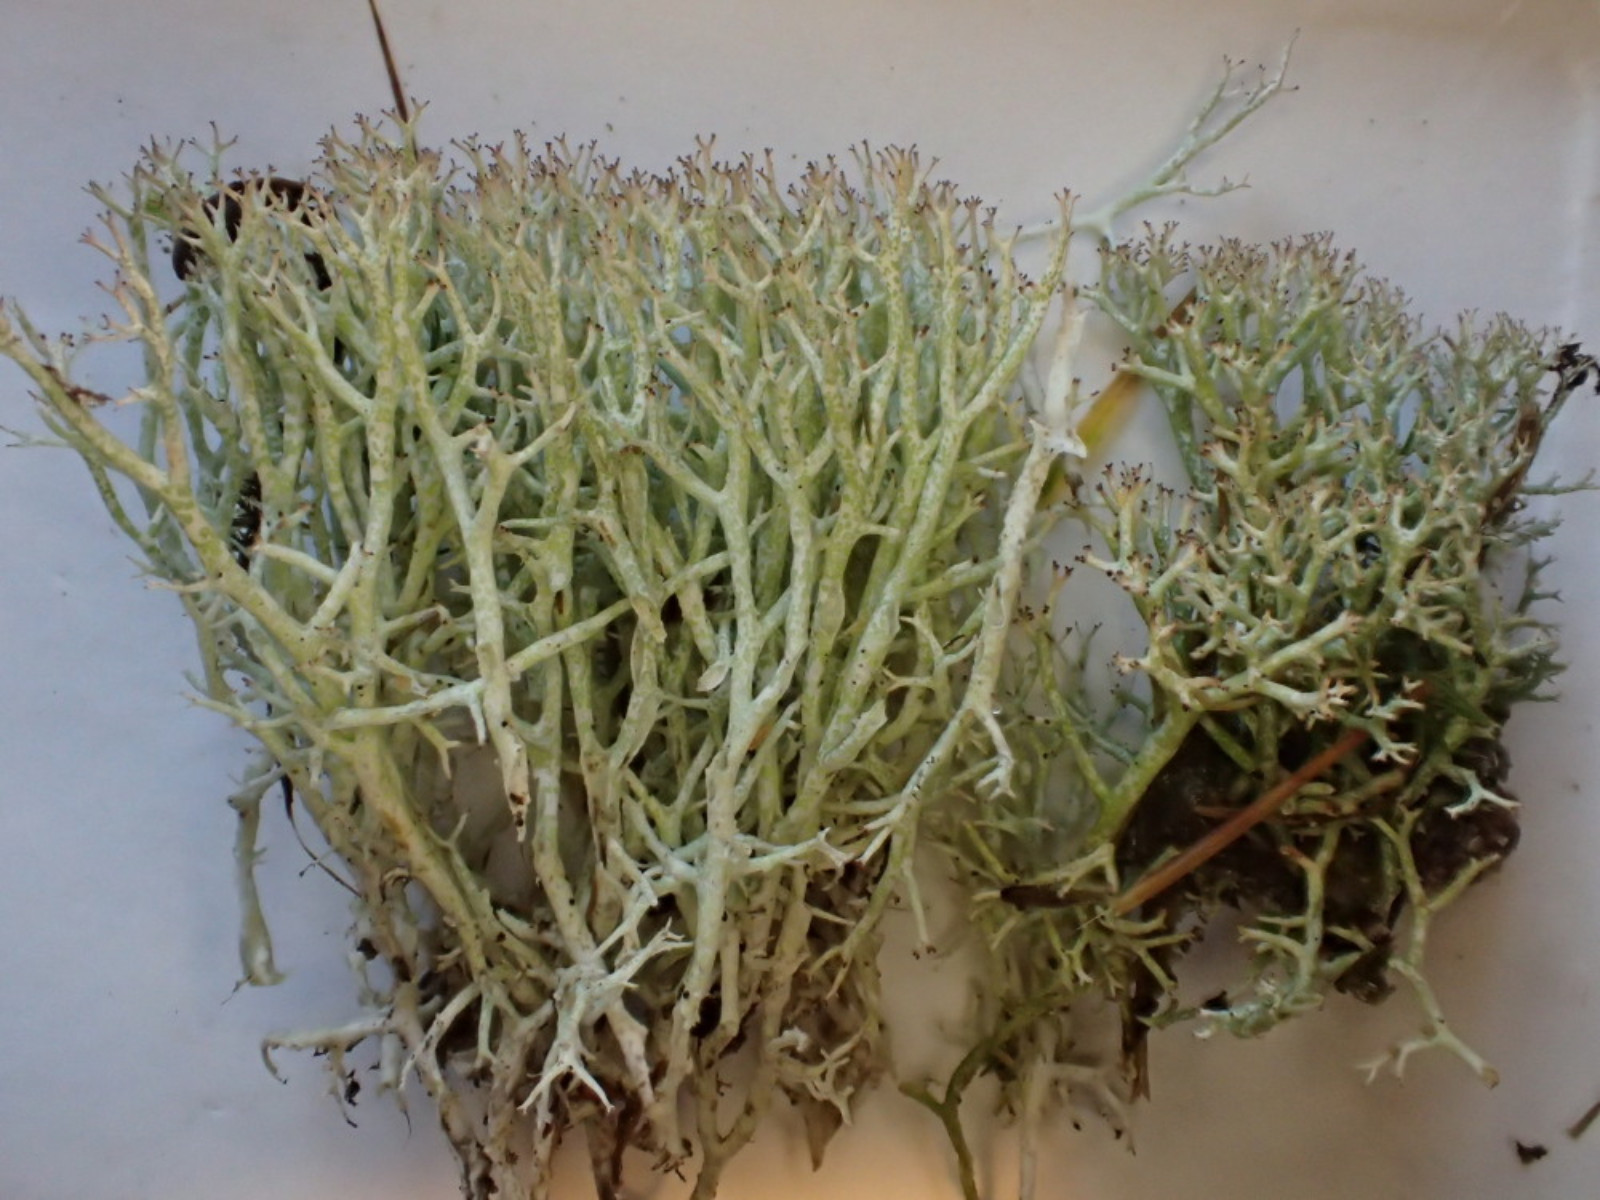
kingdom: Fungi
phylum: Ascomycota
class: Lecanoromycetes
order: Lecanorales
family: Cladoniaceae
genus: Cladonia
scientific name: Cladonia rangiformis
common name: spættet bægerlav
